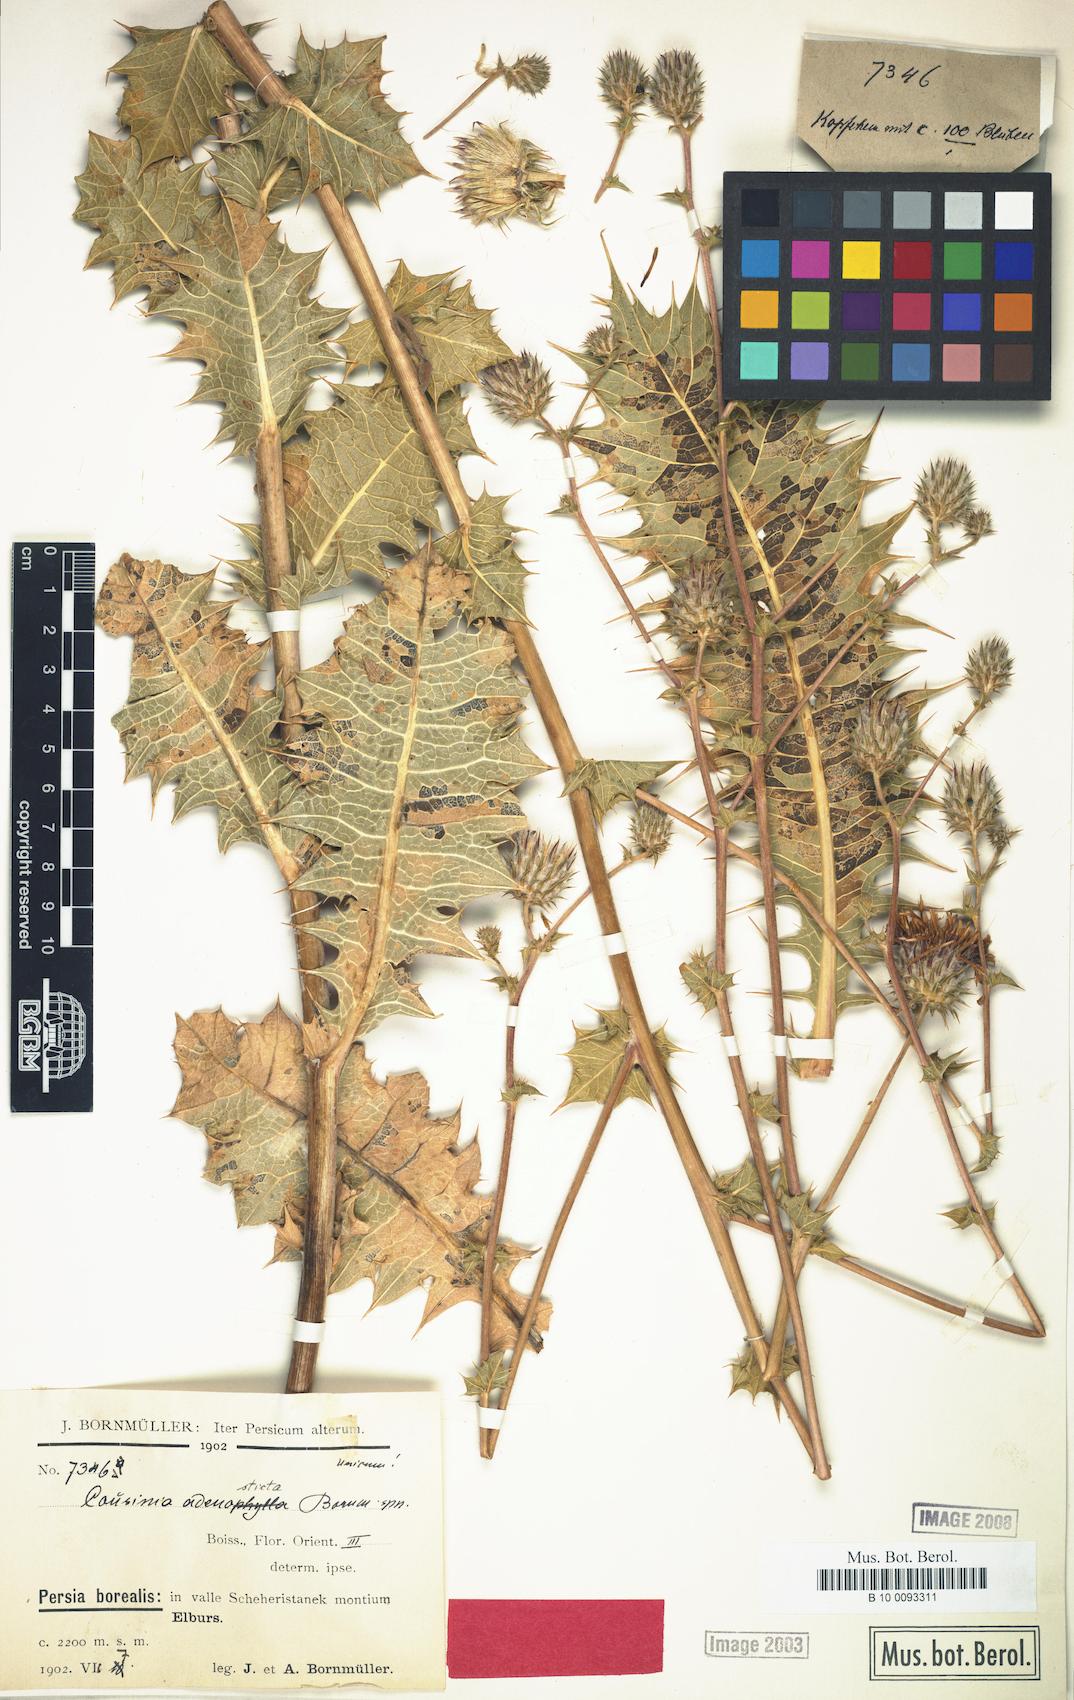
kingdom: Plantae
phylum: Tracheophyta
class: Magnoliopsida
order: Asterales
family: Asteraceae
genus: Cousinia
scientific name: Cousinia adenosticta
